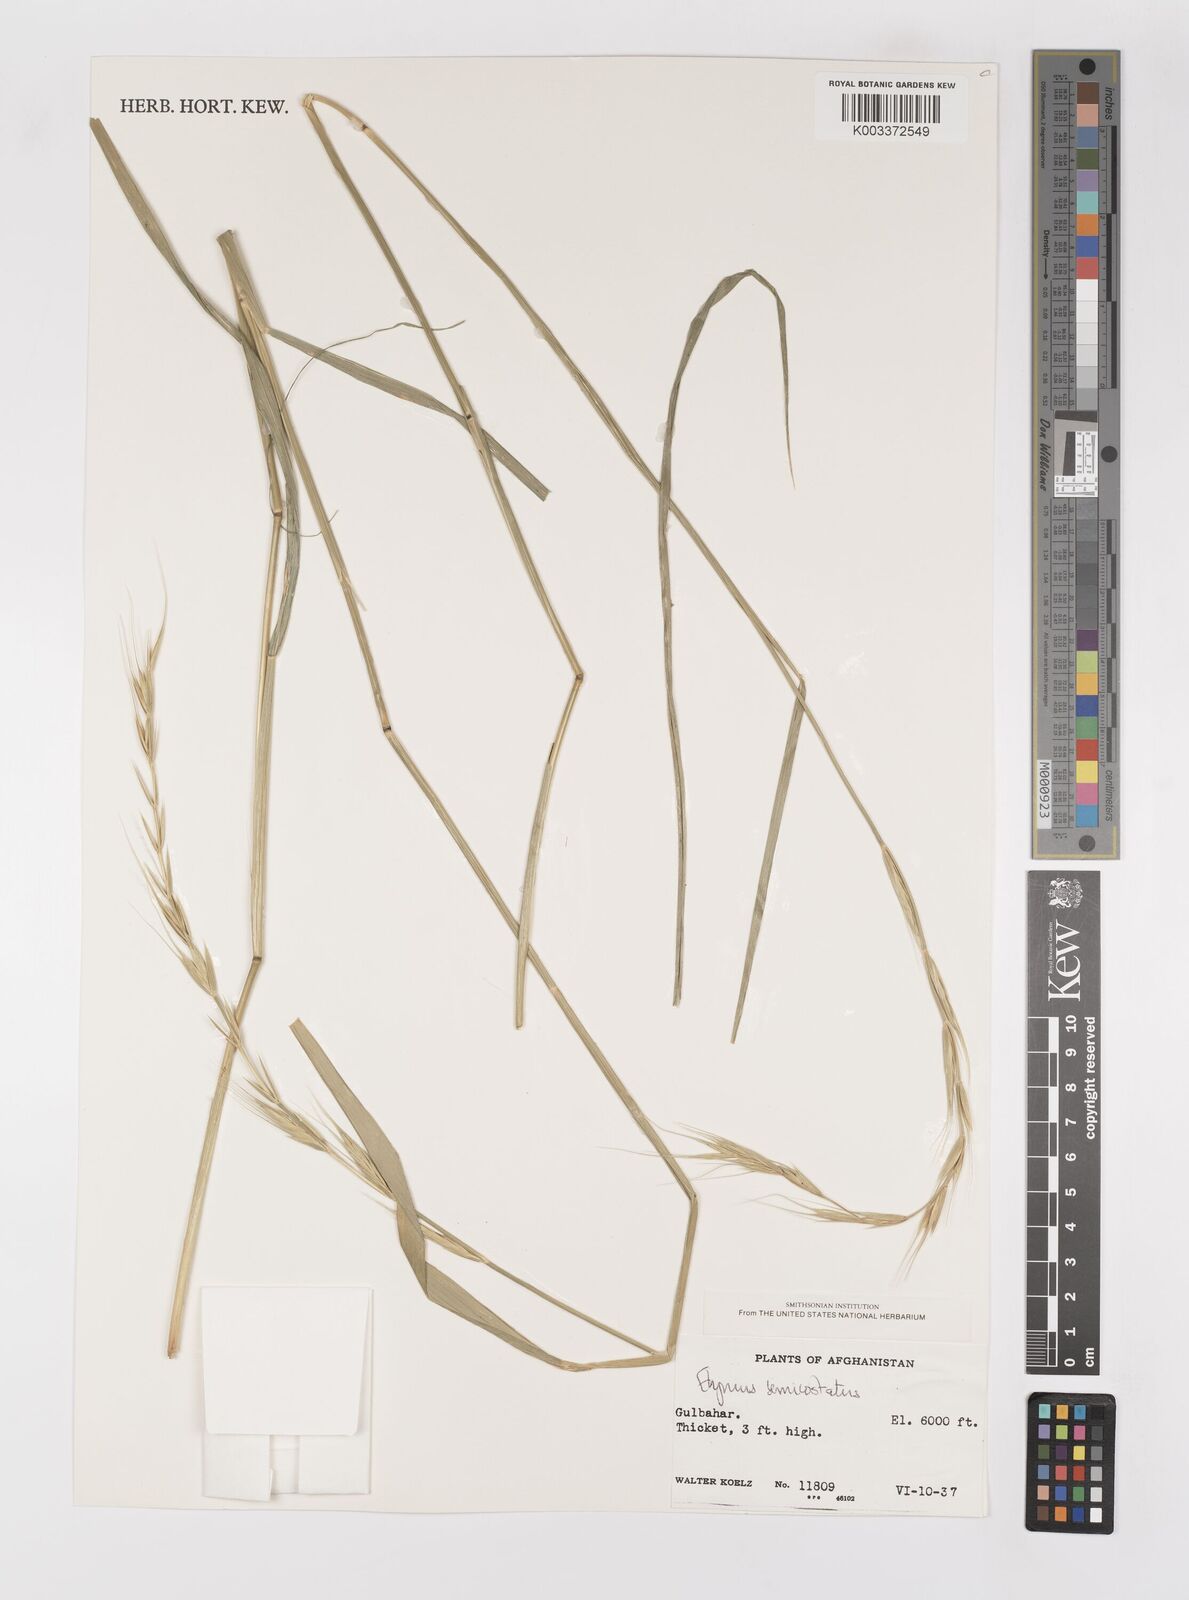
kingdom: Plantae
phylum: Tracheophyta
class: Liliopsida
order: Poales
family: Poaceae
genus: Elymus
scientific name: Elymus semicostatus
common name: Drooping wildrye
